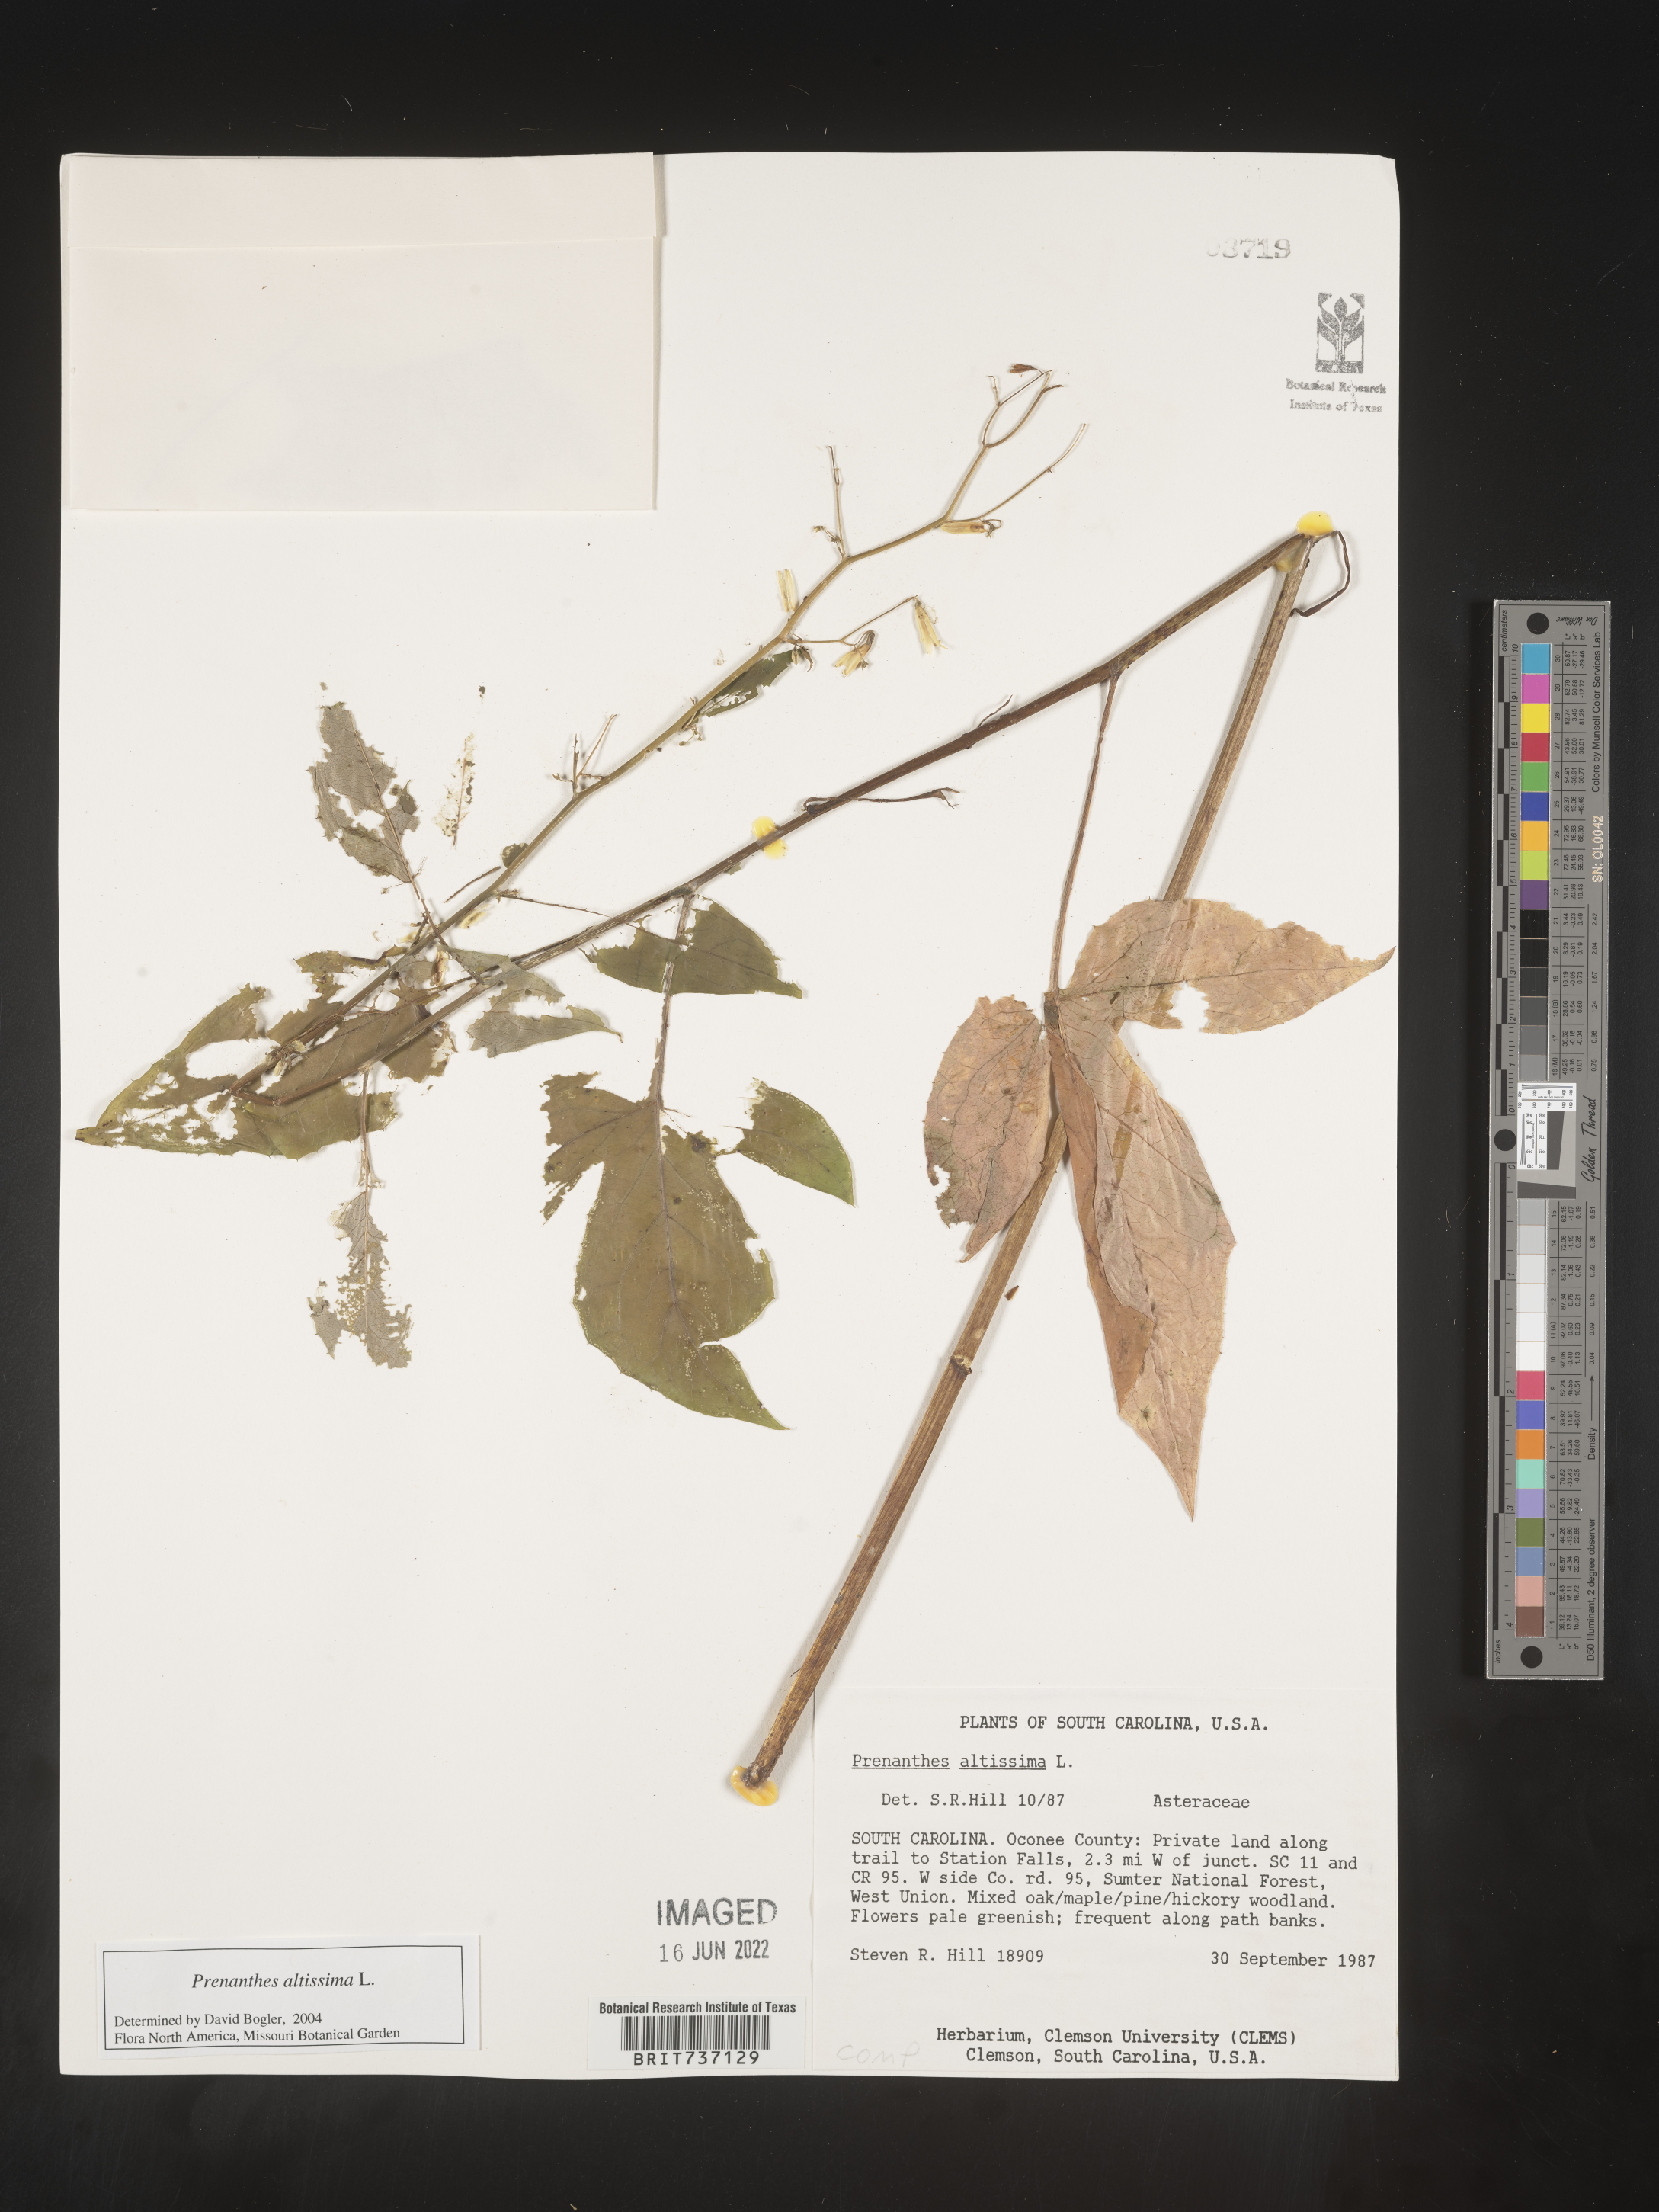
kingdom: Plantae
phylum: Tracheophyta
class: Magnoliopsida
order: Asterales
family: Asteraceae
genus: Lactuca
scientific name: Lactuca quercina
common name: Wild lettuce
